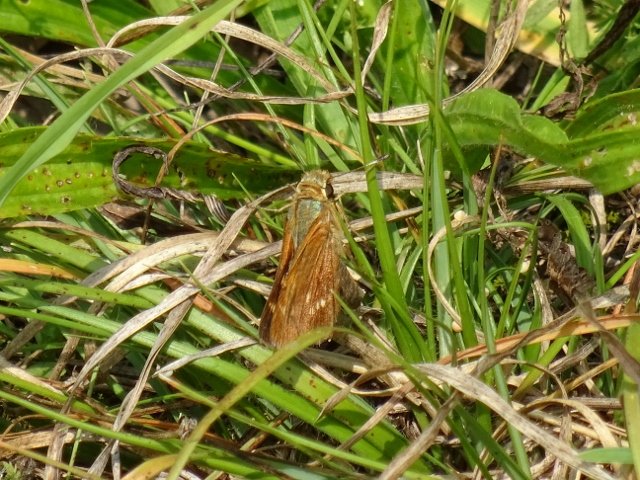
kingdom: Animalia
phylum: Arthropoda
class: Insecta
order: Lepidoptera
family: Hesperiidae
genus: Hesperia
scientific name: Hesperia leonardus
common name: Leonard's Skipper
